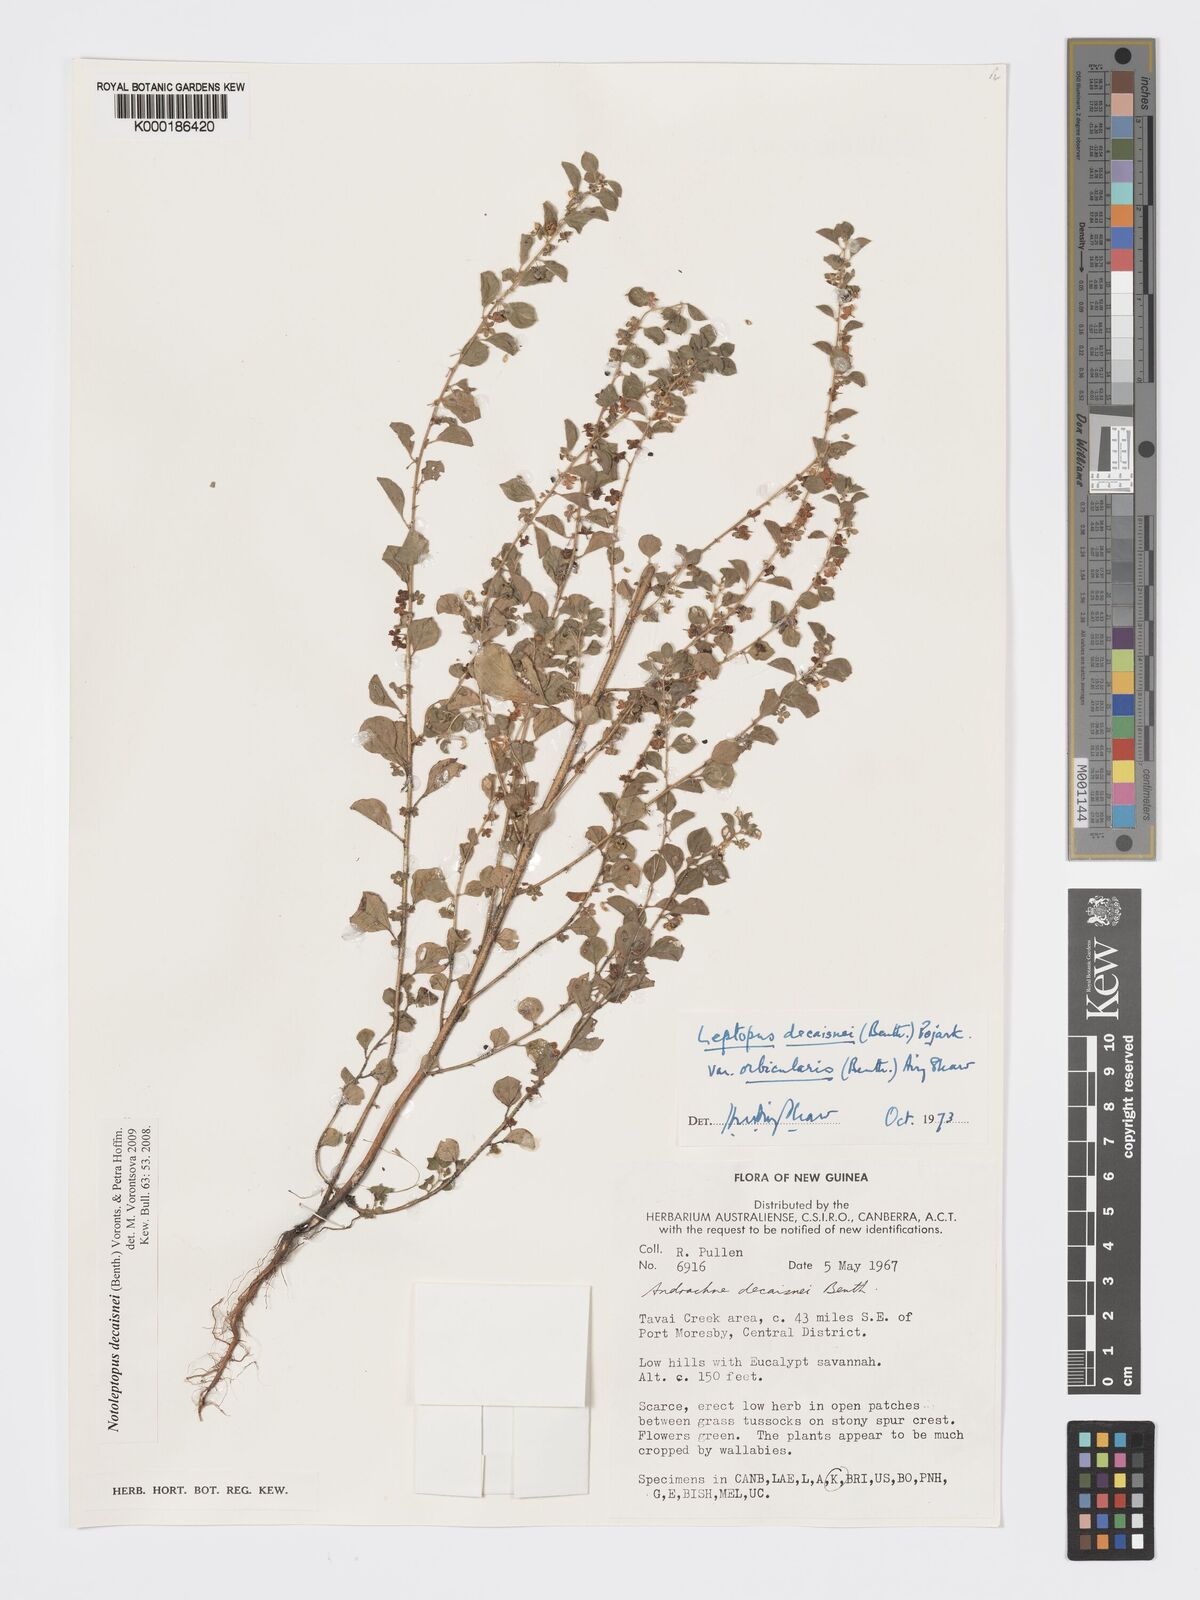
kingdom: Plantae
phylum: Tracheophyta
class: Magnoliopsida
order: Malpighiales
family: Phyllanthaceae
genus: Andrachne
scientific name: Andrachne
